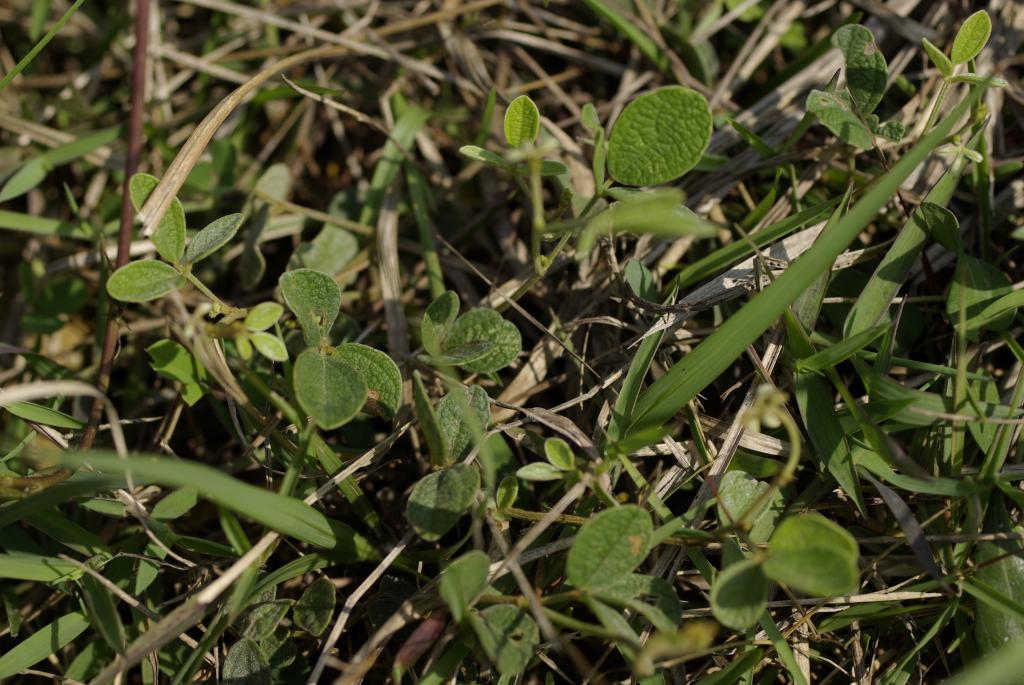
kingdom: Plantae
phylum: Tracheophyta
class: Magnoliopsida
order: Fabales
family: Fabaceae
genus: Cajanus
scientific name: Cajanus scarabaeoides
